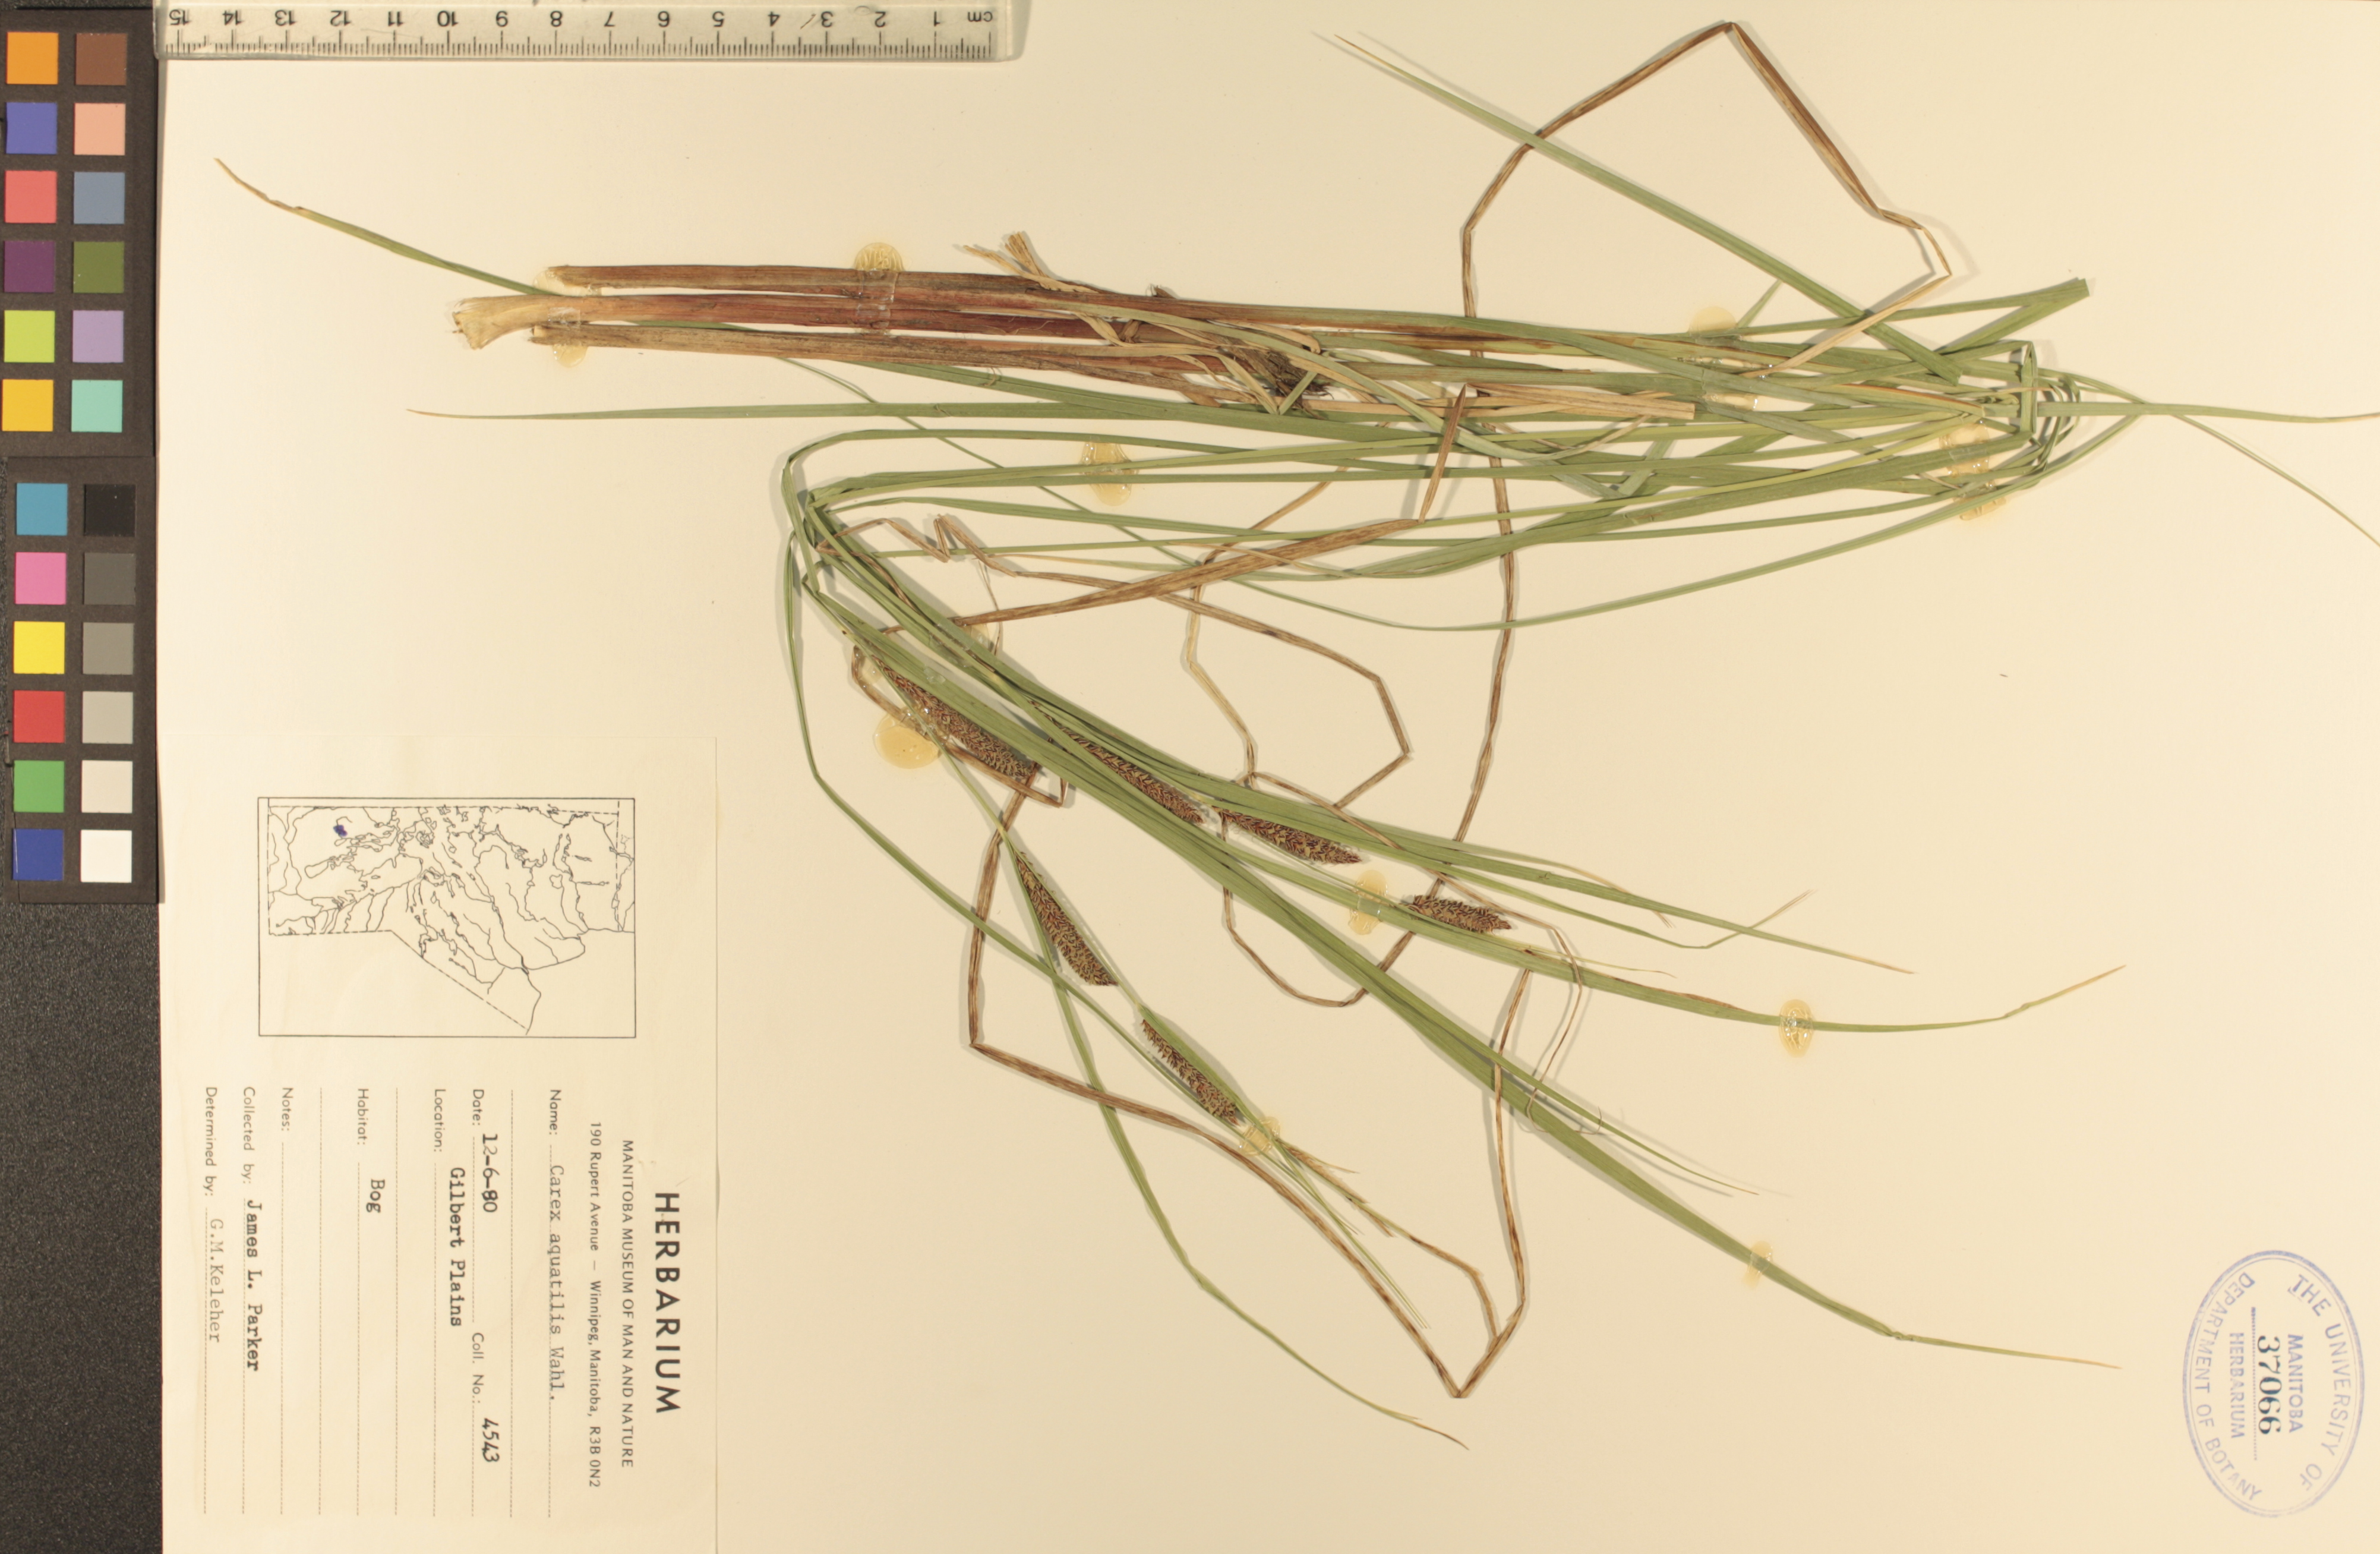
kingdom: Plantae
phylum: Tracheophyta
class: Liliopsida
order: Poales
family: Cyperaceae
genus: Carex
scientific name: Carex aquatilis
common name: Water sedge
